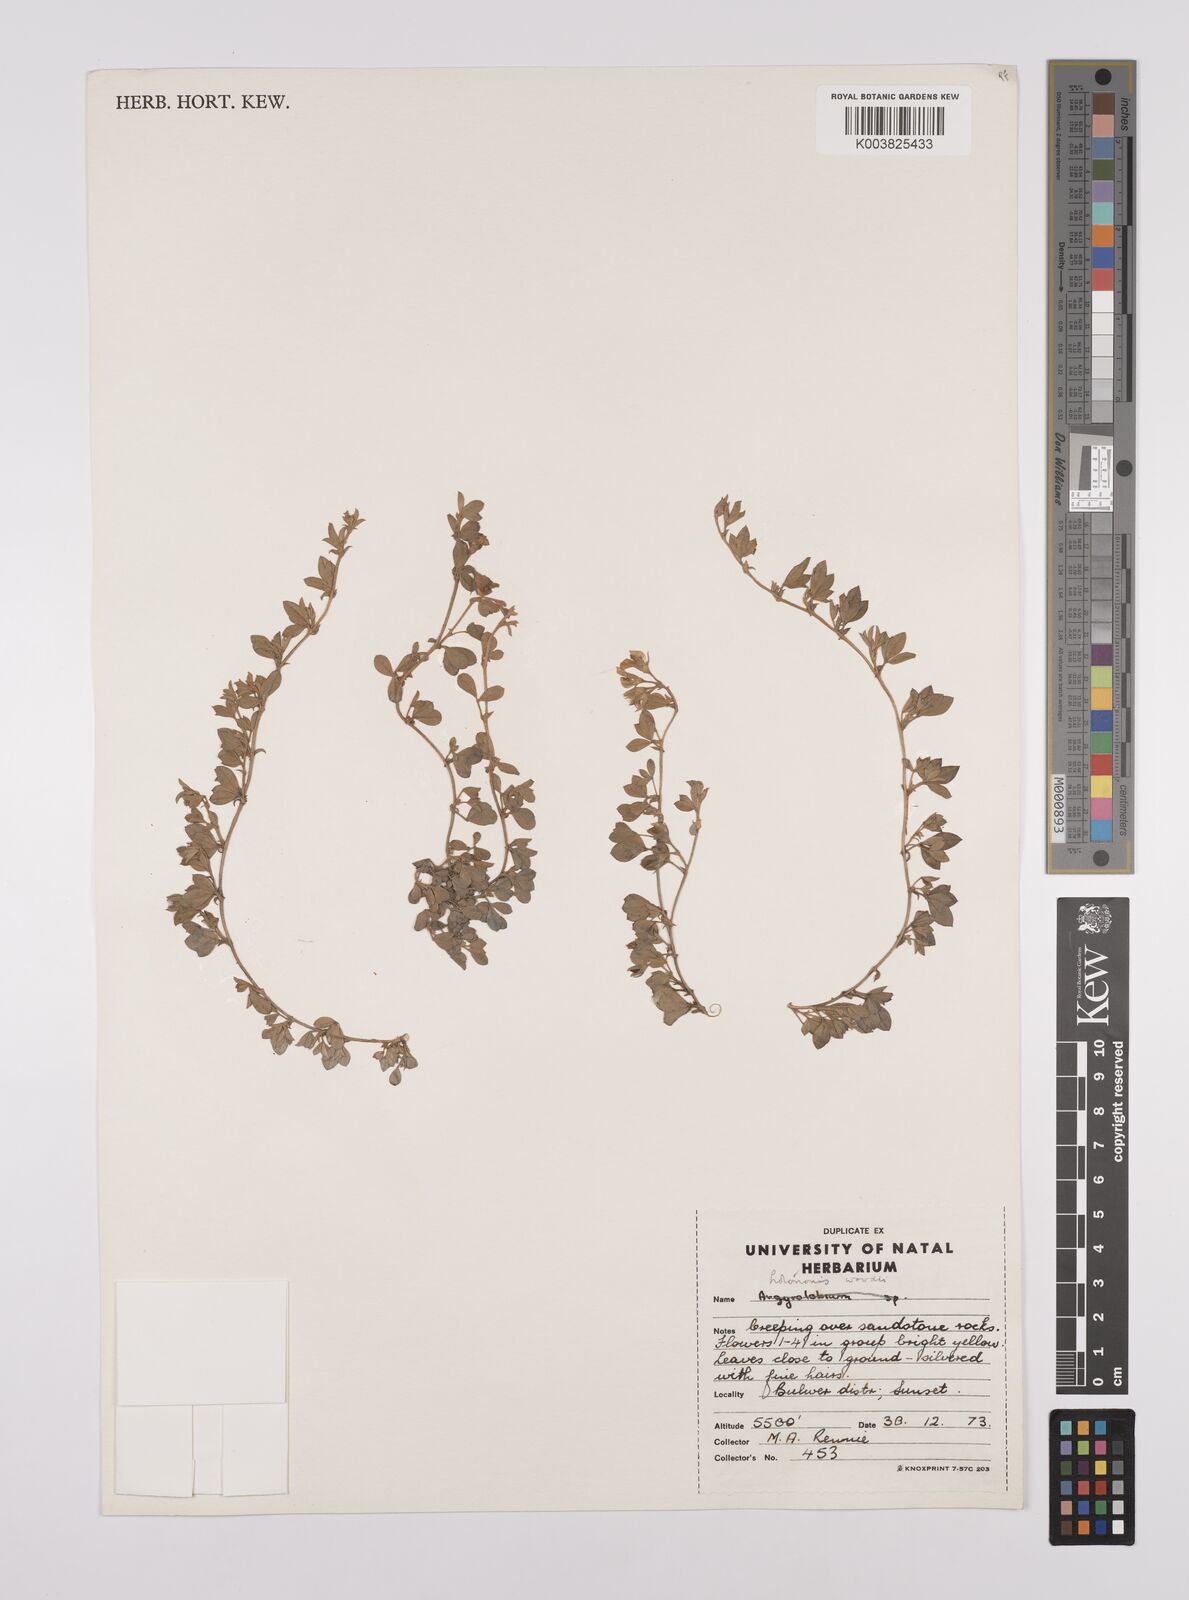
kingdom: Plantae
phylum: Tracheophyta
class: Magnoliopsida
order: Fabales
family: Fabaceae
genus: Lotononis
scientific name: Lotononis laxa
